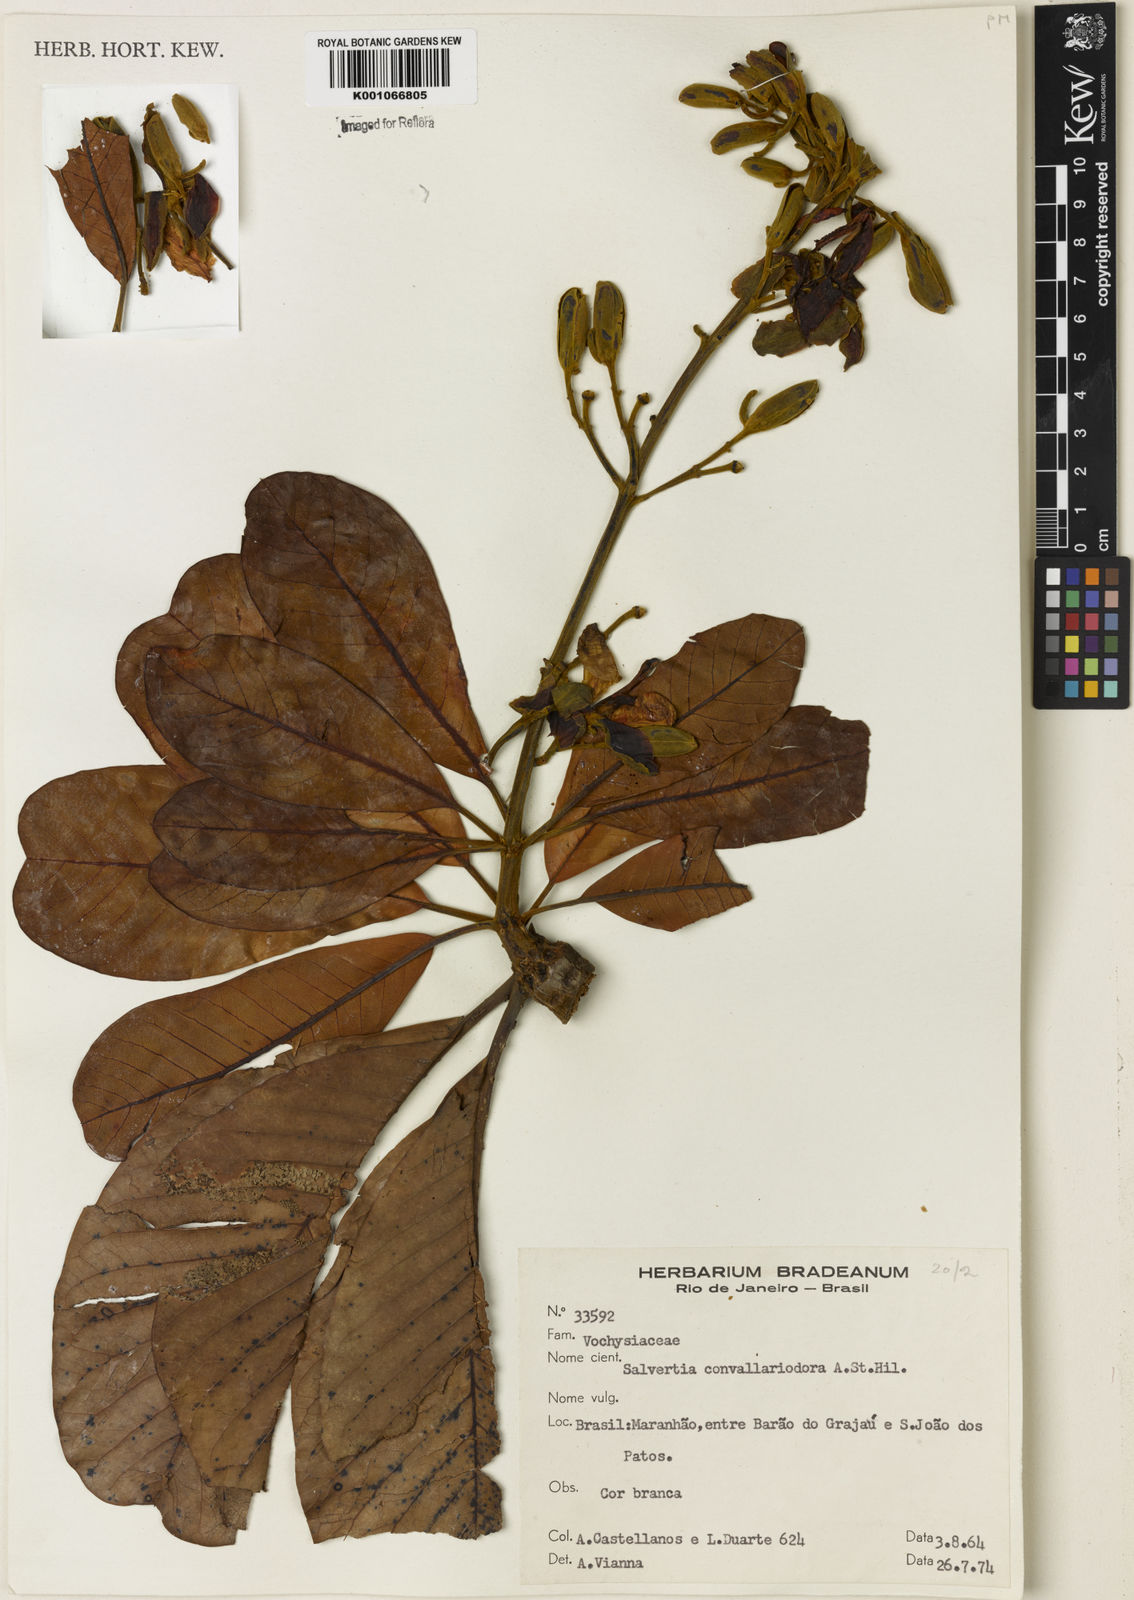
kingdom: Plantae
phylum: Tracheophyta
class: Magnoliopsida
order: Myrtales
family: Vochysiaceae
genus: Salvertia
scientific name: Salvertia convallariodora
